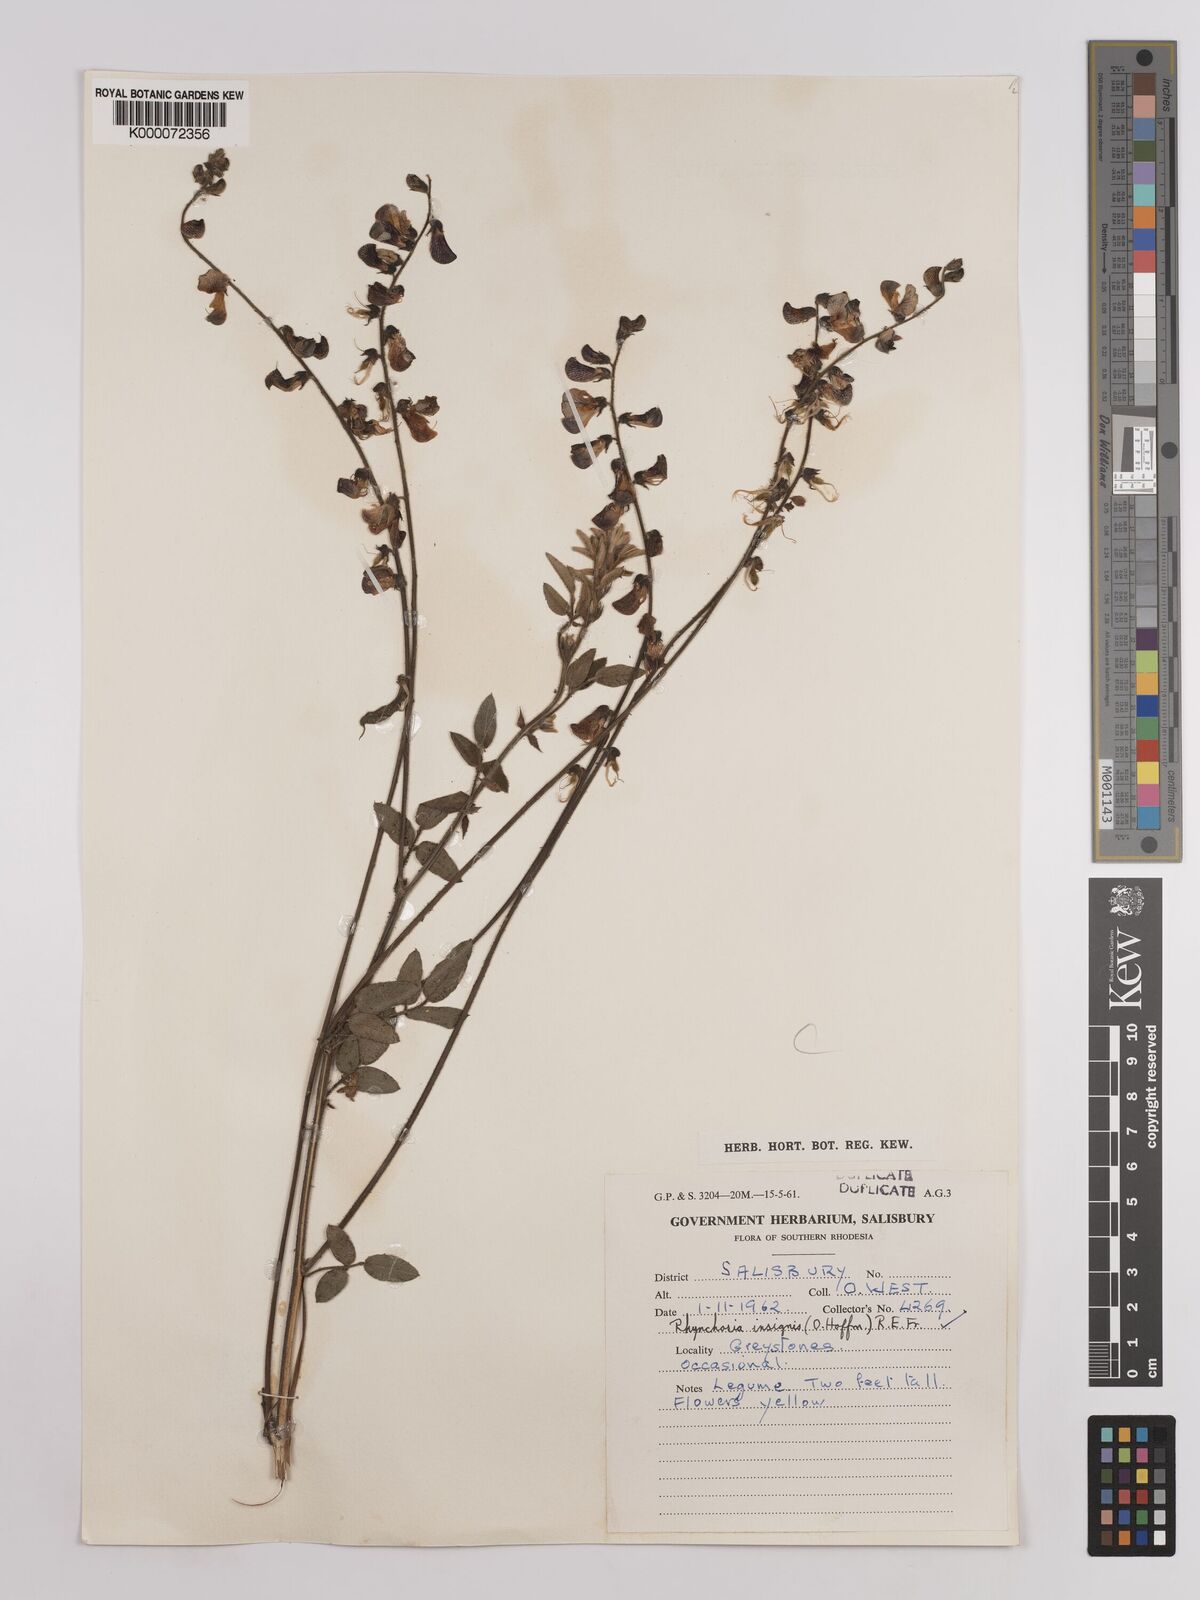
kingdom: Plantae
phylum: Tracheophyta
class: Magnoliopsida
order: Fabales
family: Fabaceae
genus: Rhynchosia
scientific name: Rhynchosia insignis
